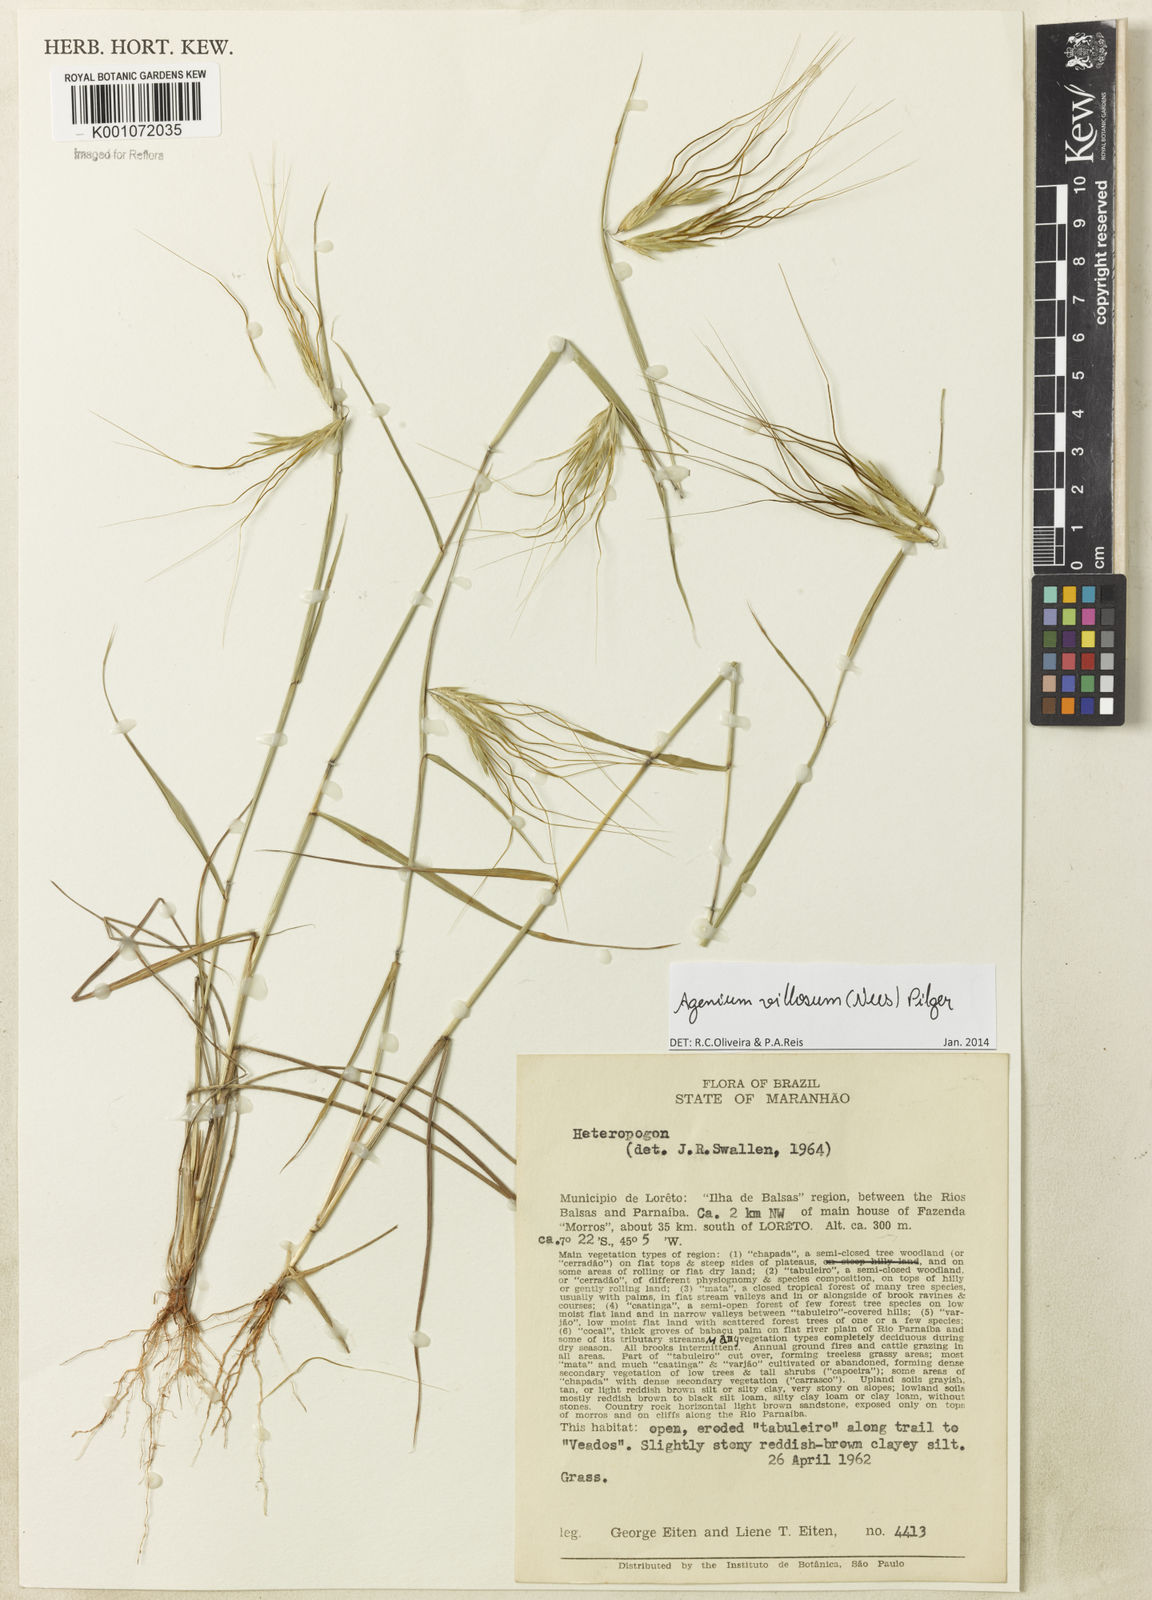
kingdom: Plantae
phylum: Tracheophyta
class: Liliopsida
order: Poales
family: Poaceae
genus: Agenium
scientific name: Agenium villosum
